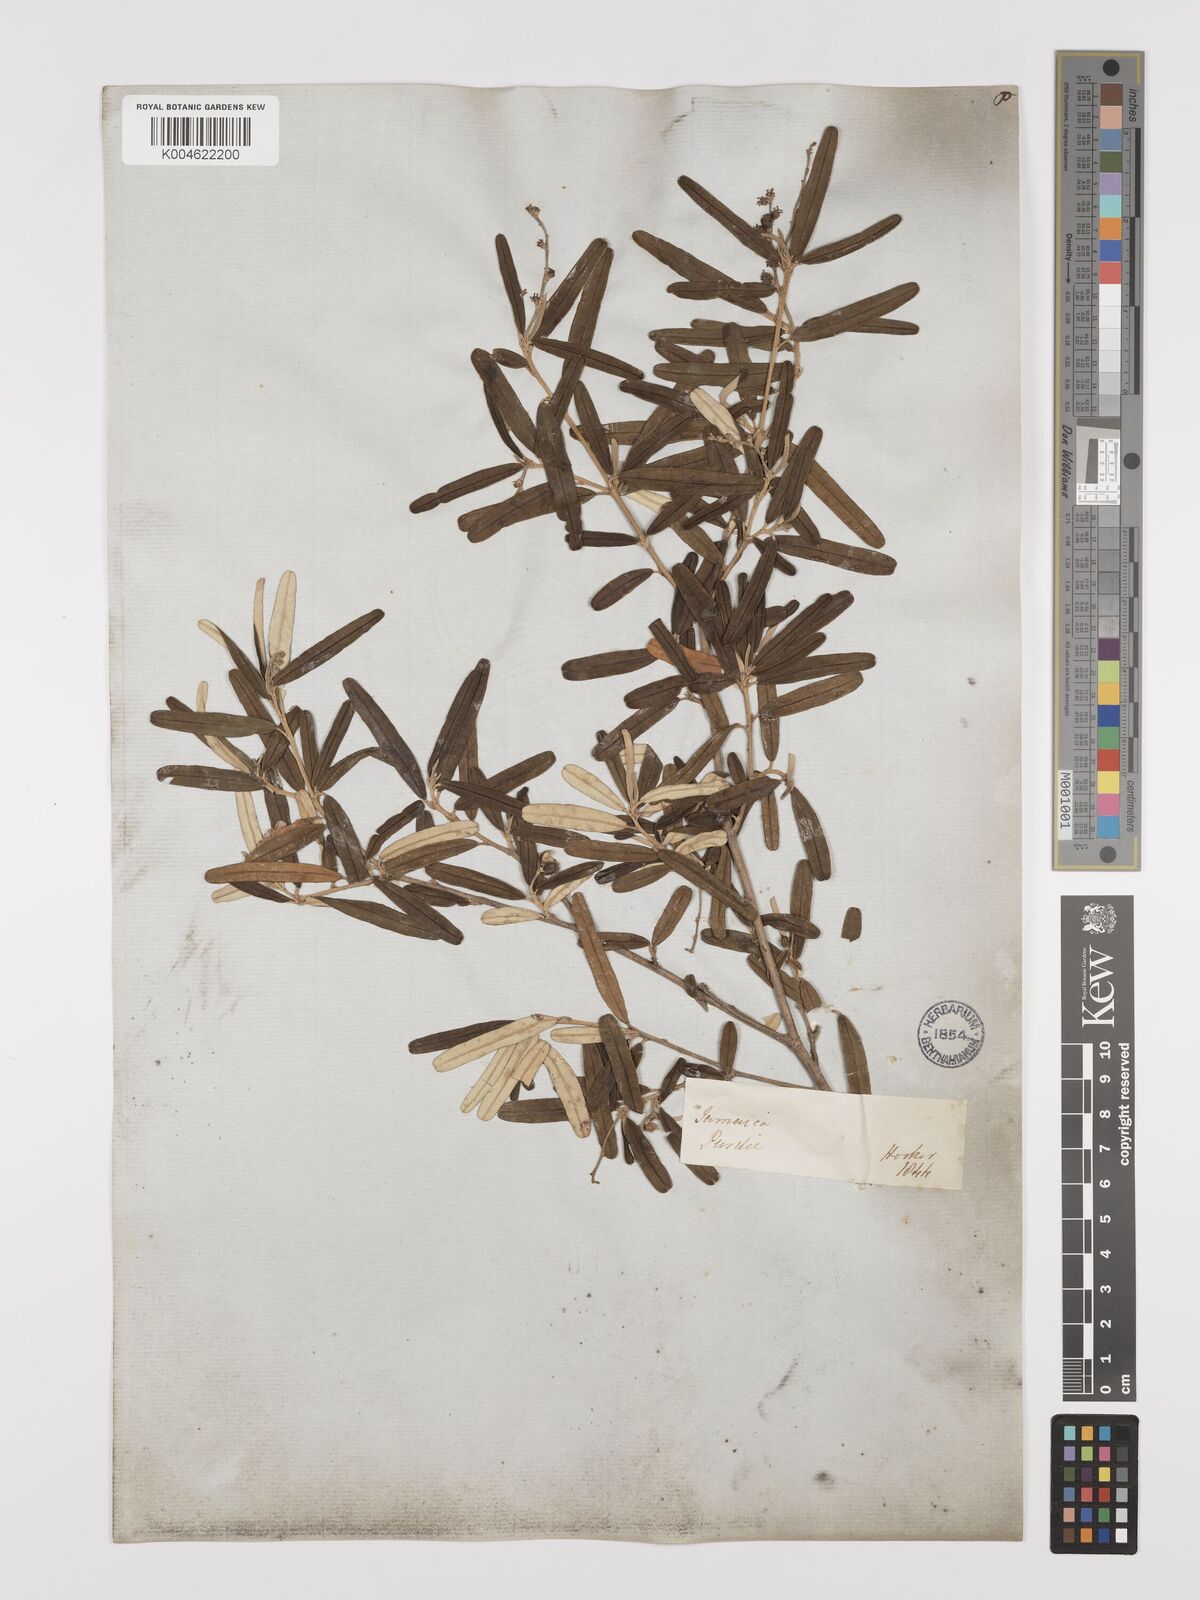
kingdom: Plantae
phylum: Tracheophyta
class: Magnoliopsida
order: Malpighiales
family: Euphorbiaceae
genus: Croton
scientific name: Croton linearis
